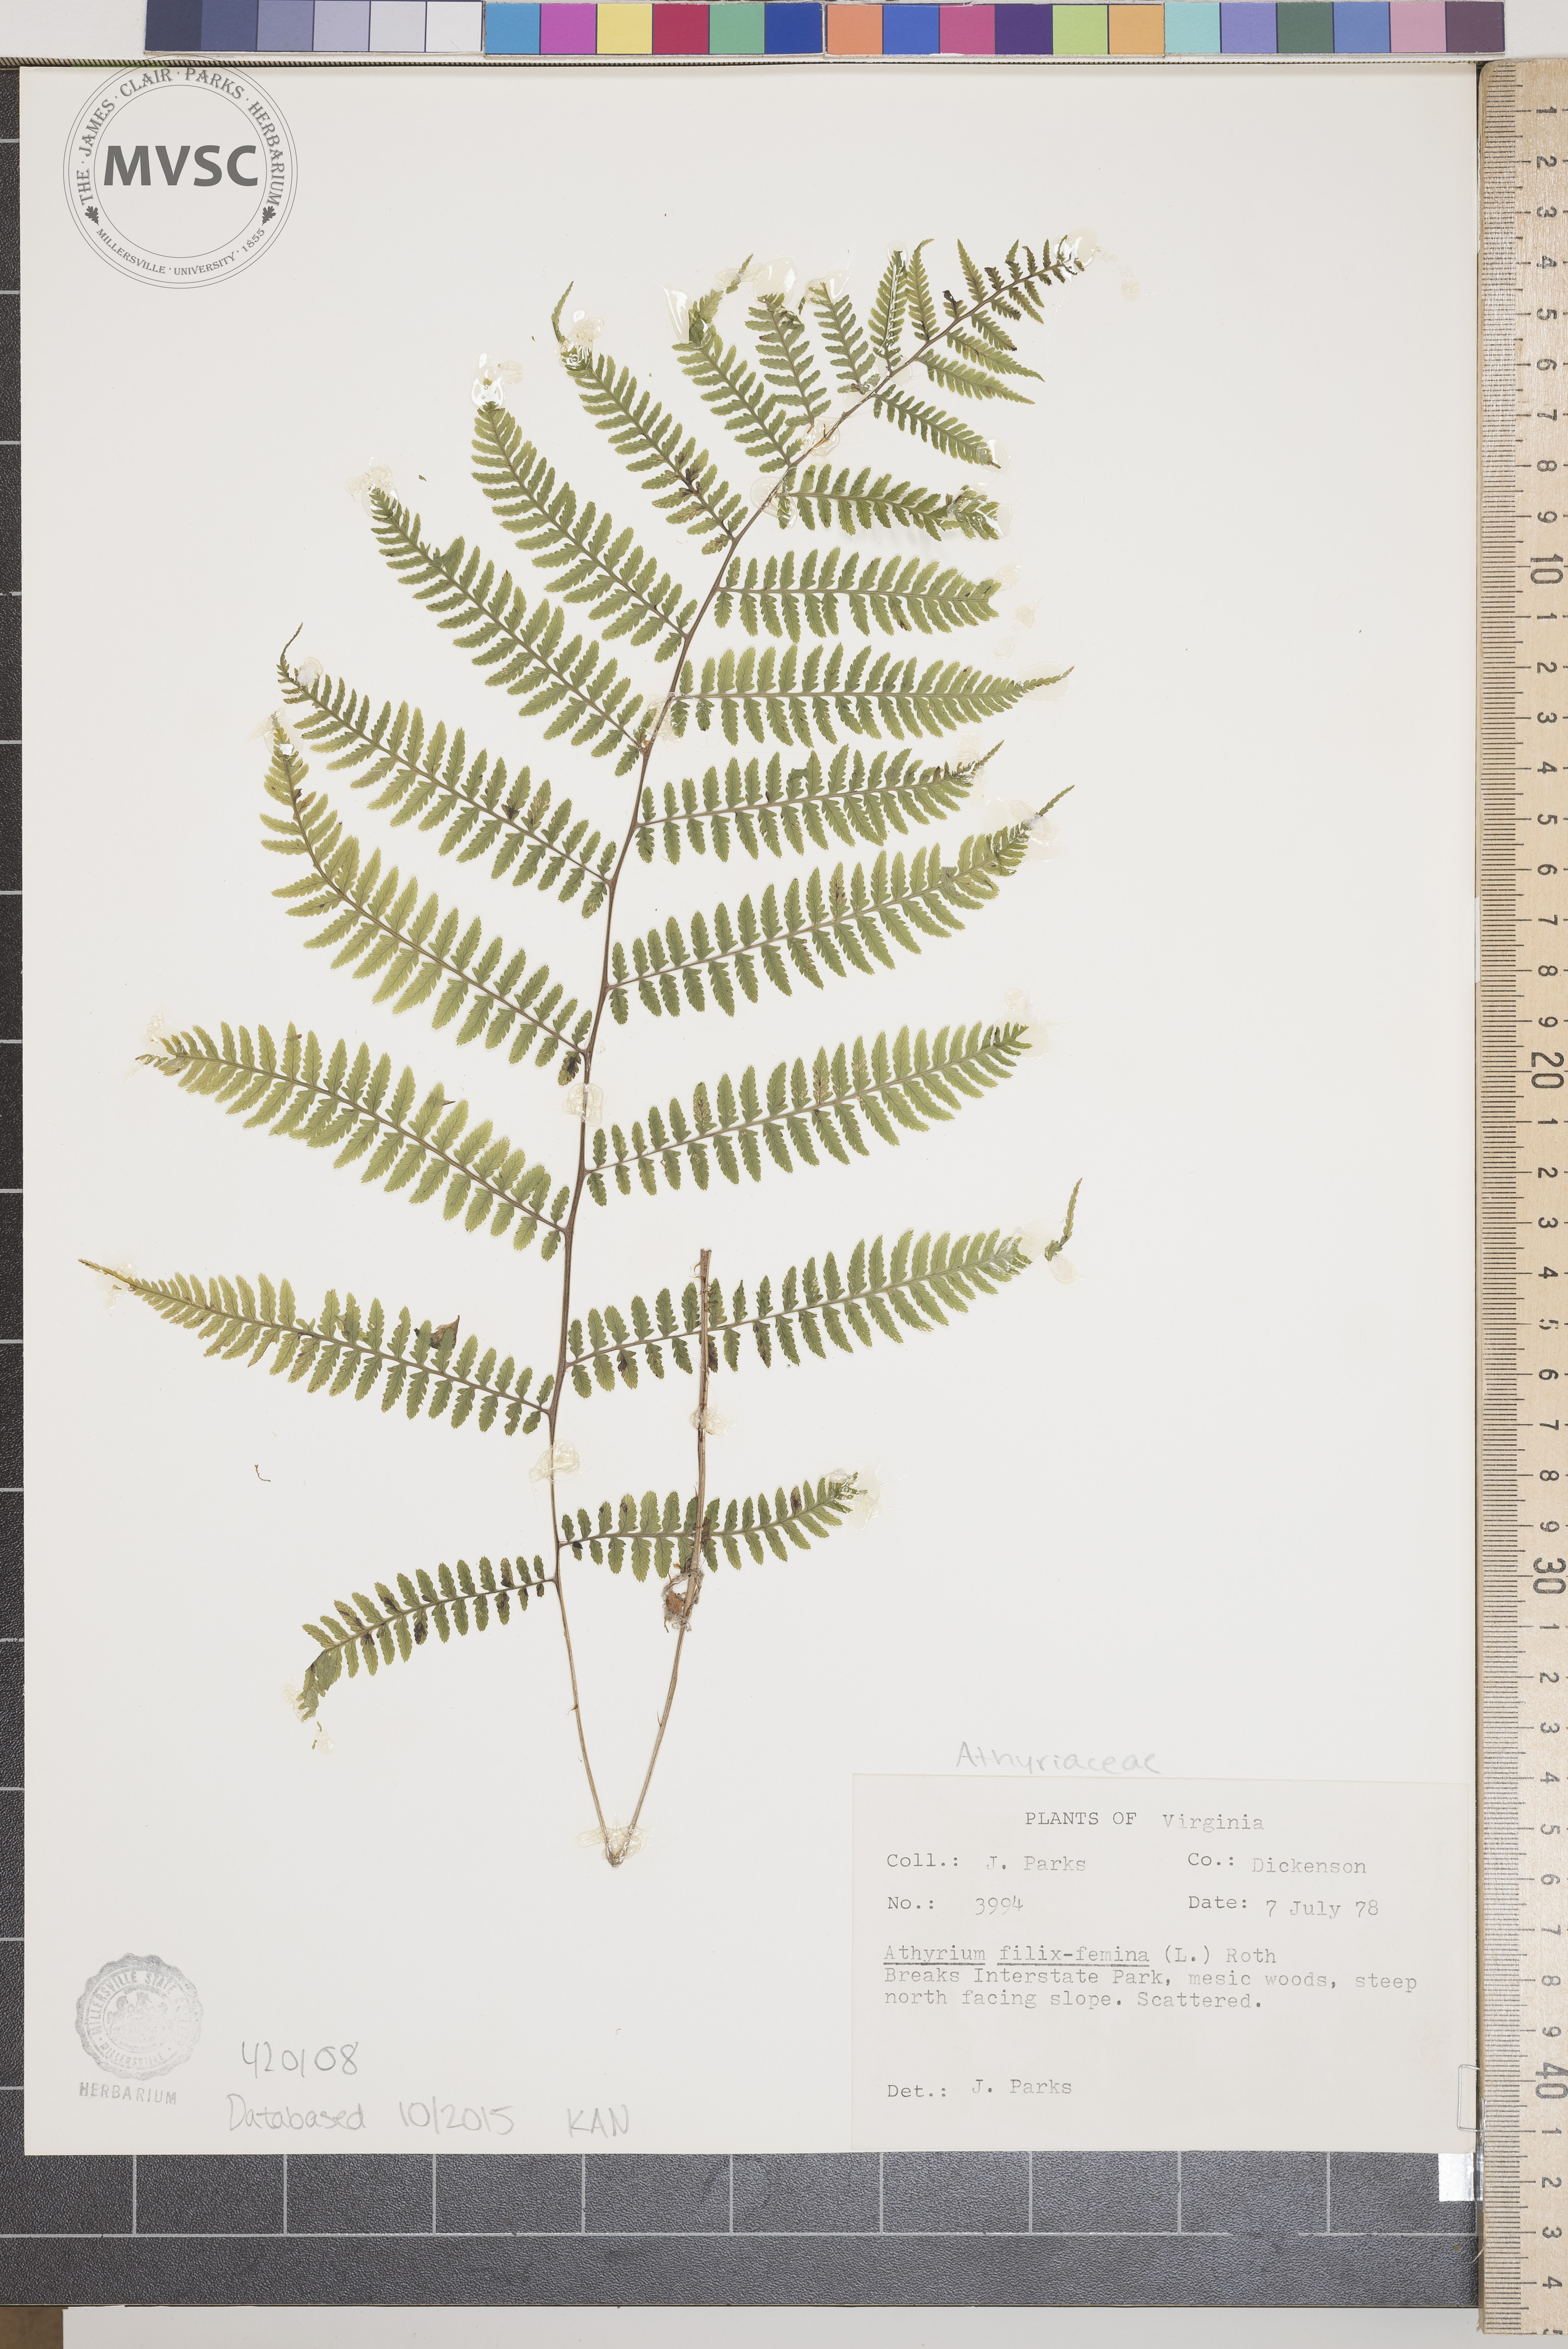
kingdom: Plantae
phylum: Tracheophyta
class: Polypodiopsida
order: Polypodiales
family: Athyriaceae
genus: Athyrium
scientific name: Athyrium filix-femina
